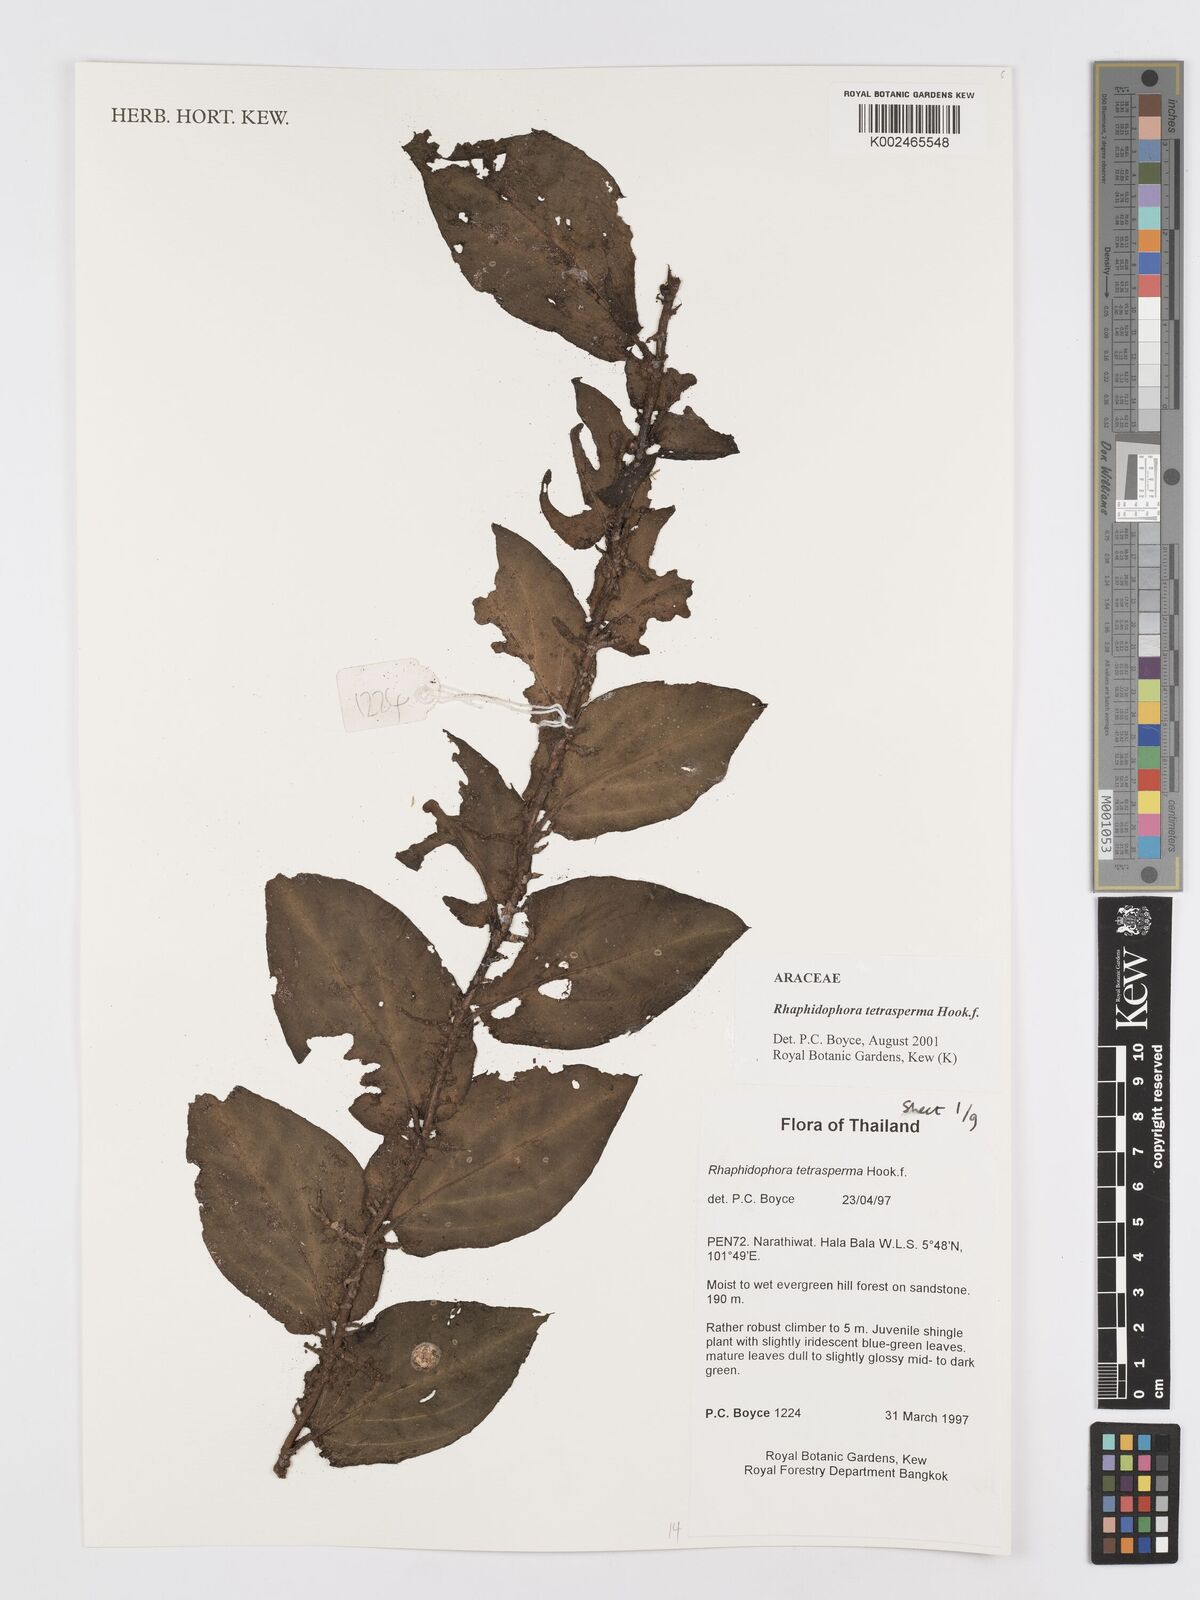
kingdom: Plantae
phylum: Tracheophyta
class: Liliopsida
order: Alismatales
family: Araceae
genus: Rhaphidophora
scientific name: Rhaphidophora tetrasperma
